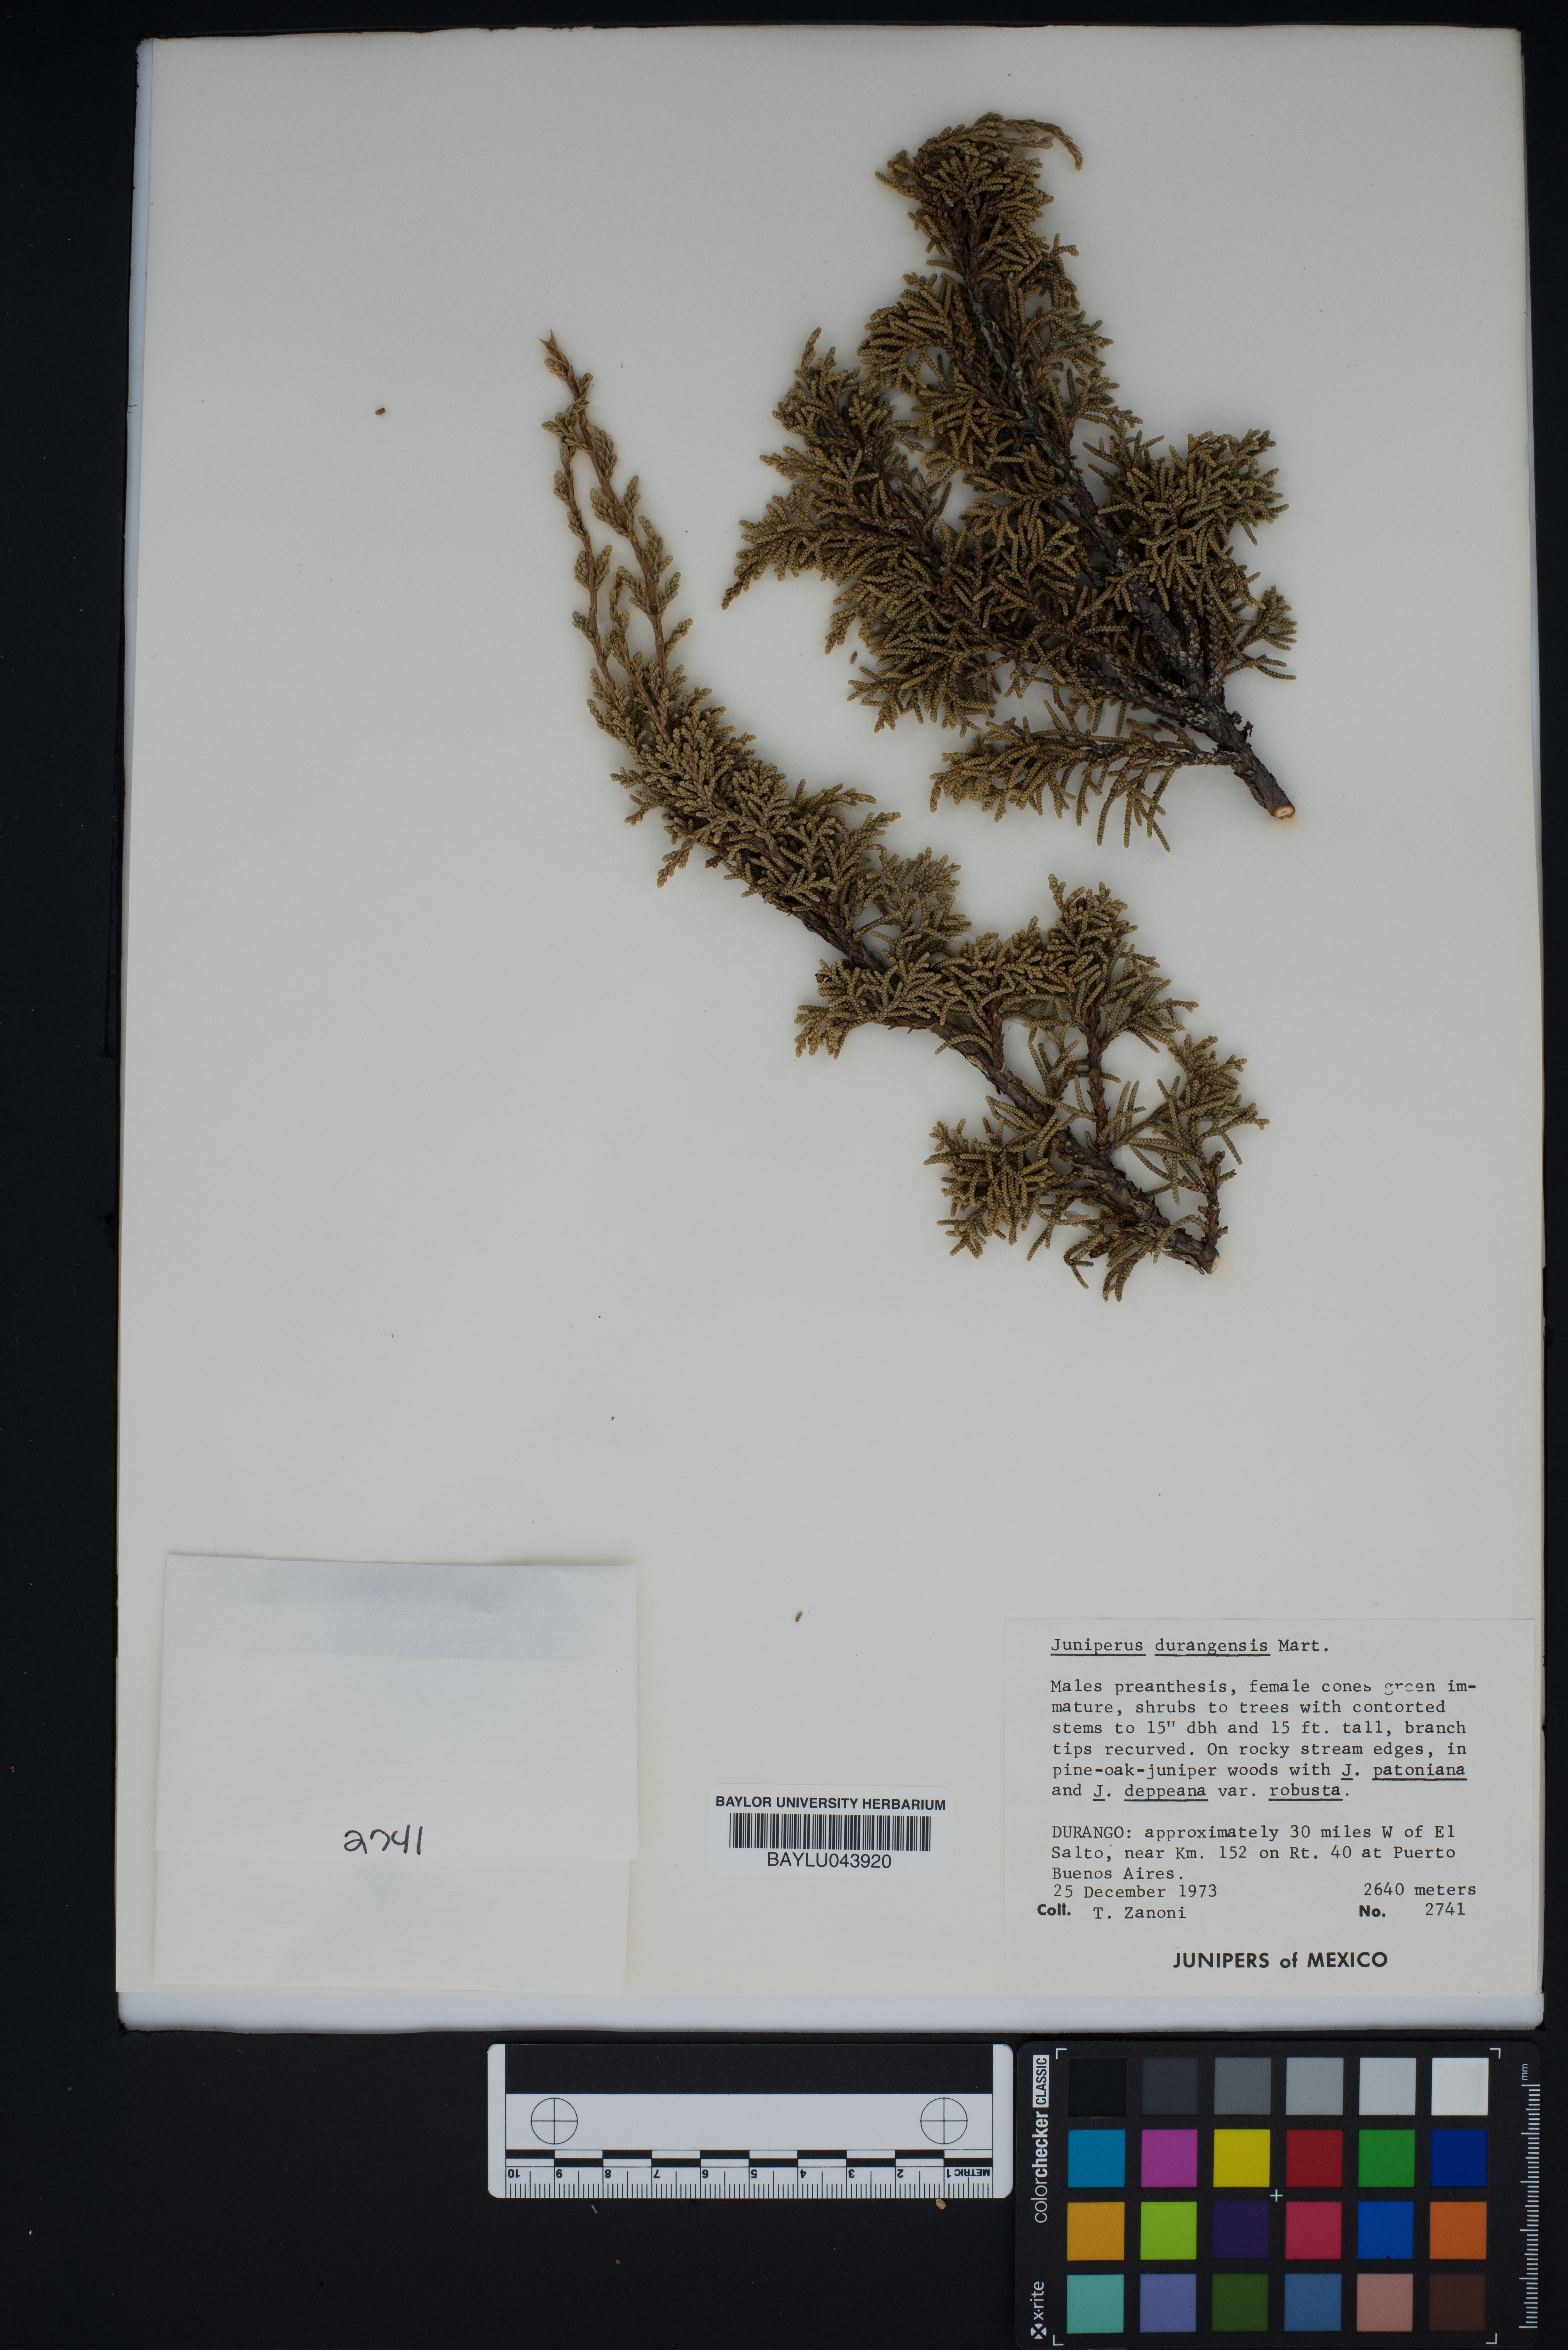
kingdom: Plantae
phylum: Tracheophyta
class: Pinopsida
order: Pinales
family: Cupressaceae
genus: Juniperus
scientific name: Juniperus durangensis
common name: Durango juniper
